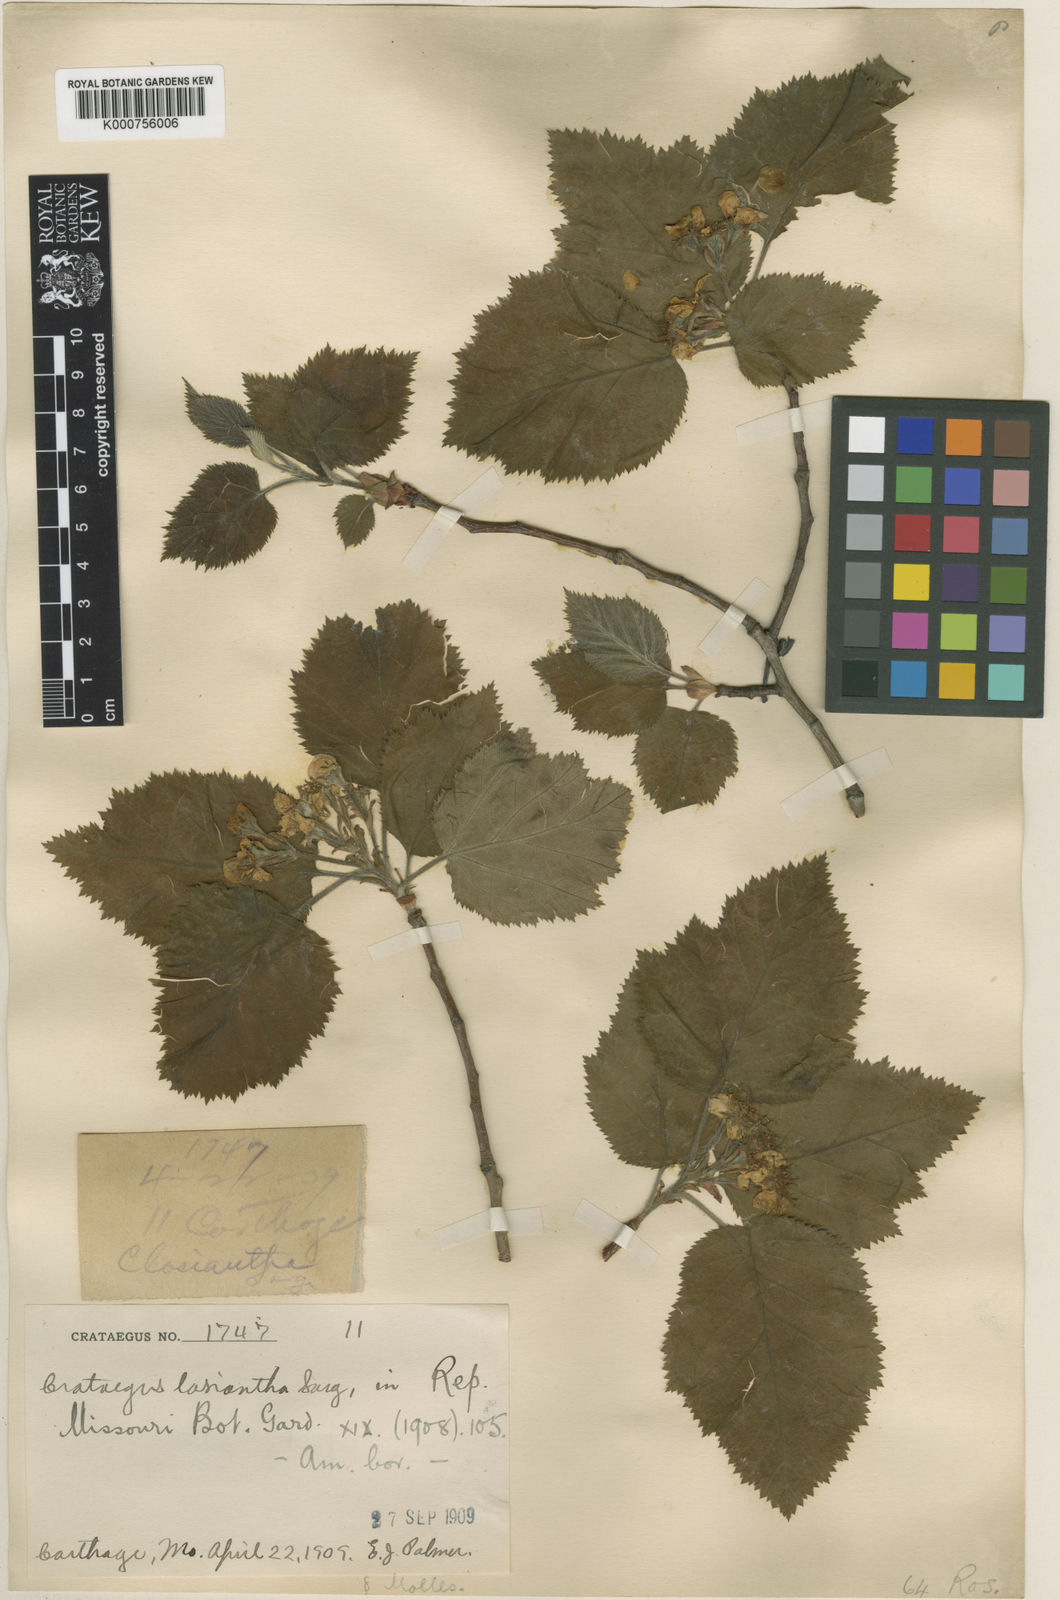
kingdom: Plantae
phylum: Tracheophyta
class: Magnoliopsida
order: Rosales
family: Rosaceae
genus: Crataegus
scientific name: Crataegus lasiantha
